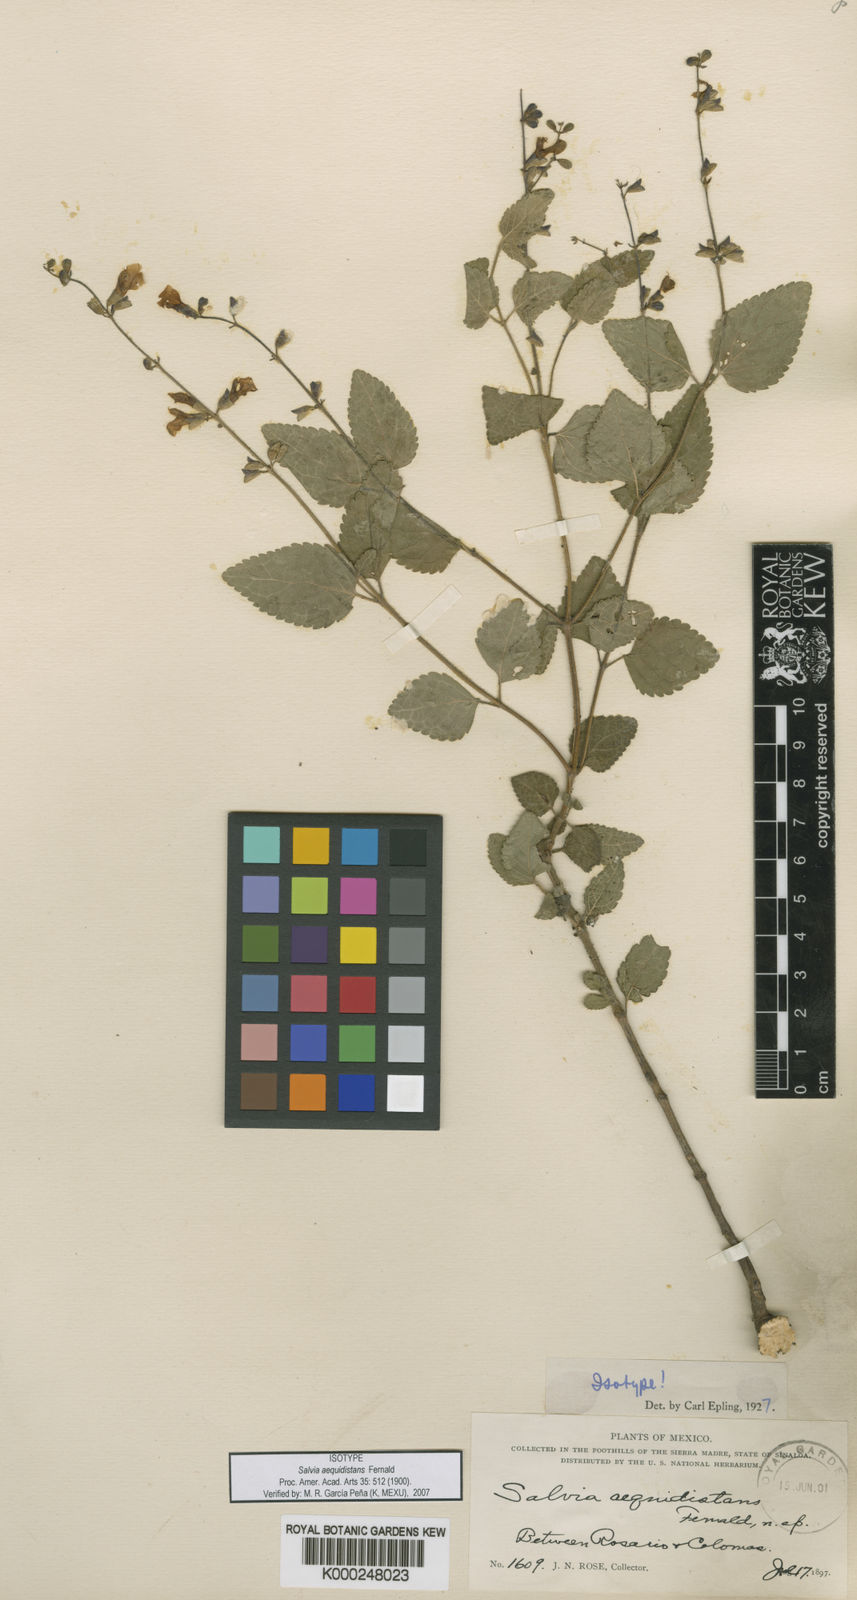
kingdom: Plantae
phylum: Tracheophyta
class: Magnoliopsida
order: Lamiales
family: Lamiaceae
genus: Salvia
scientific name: Salvia aequidistans
